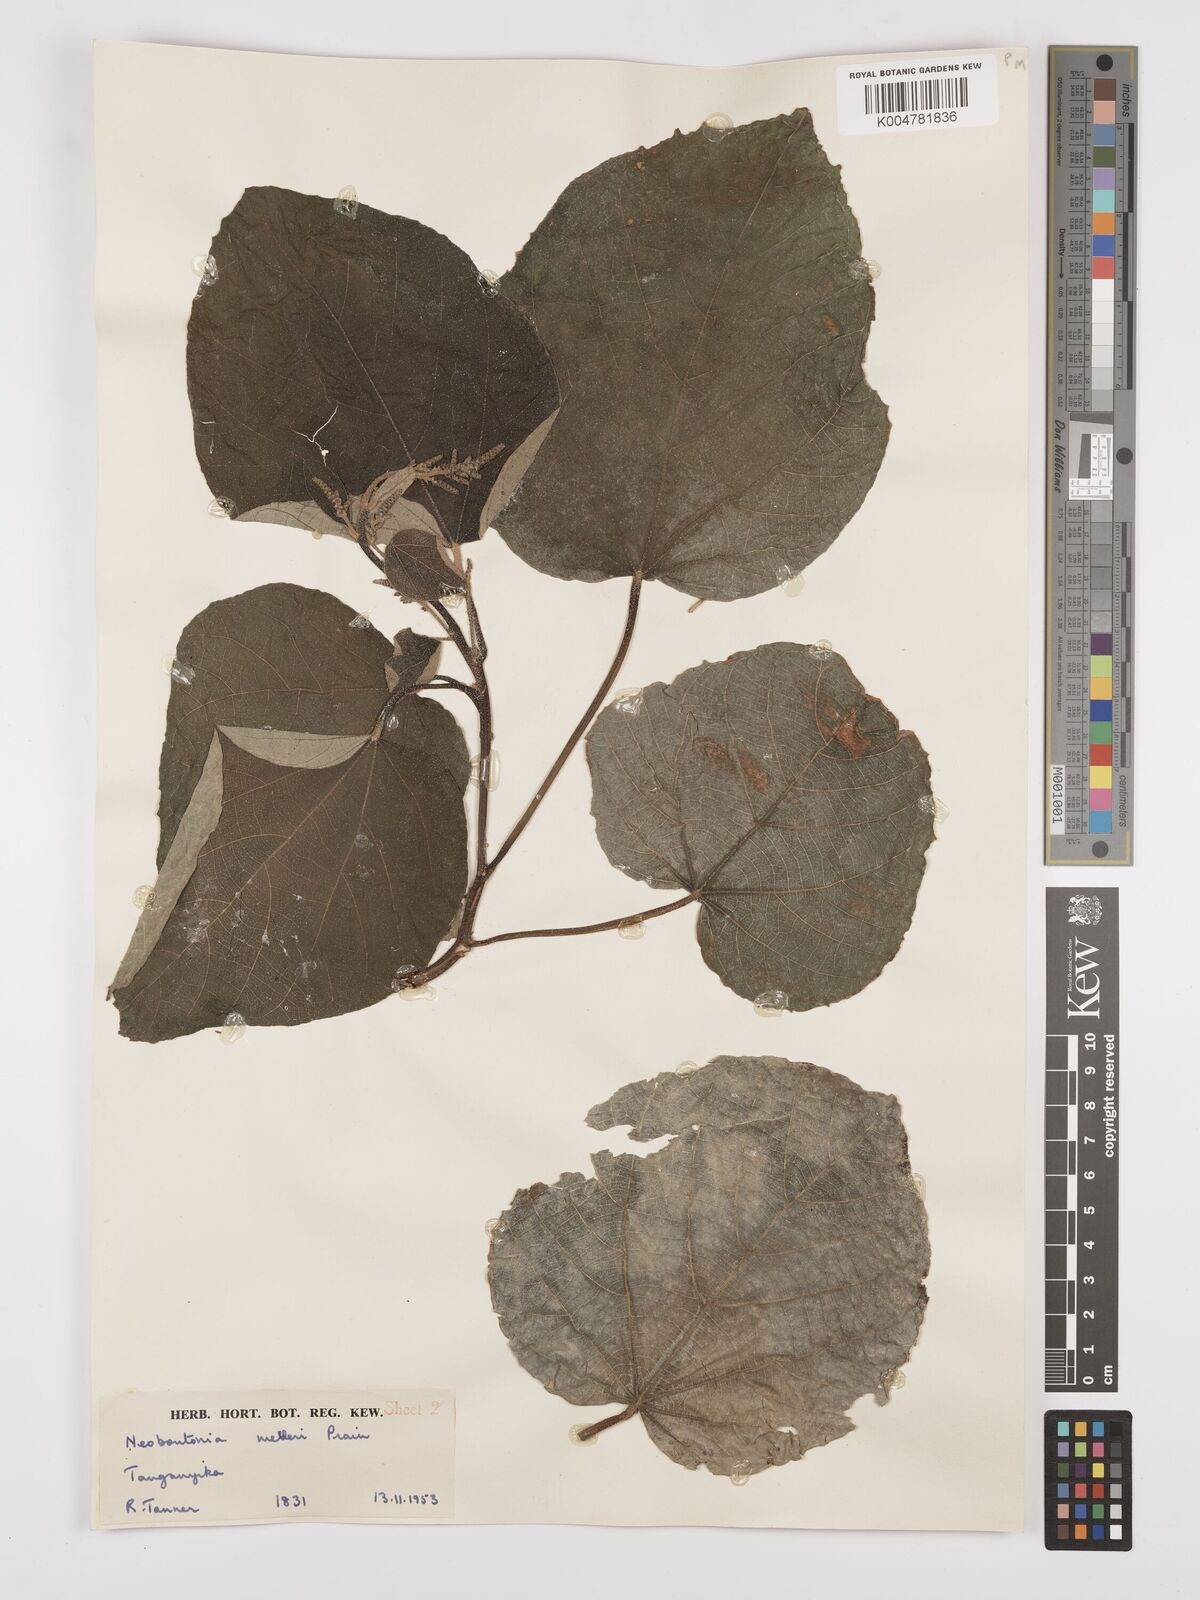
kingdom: Plantae
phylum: Tracheophyta
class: Magnoliopsida
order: Malpighiales
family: Euphorbiaceae
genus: Neoboutonia
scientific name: Neoboutonia melleri
